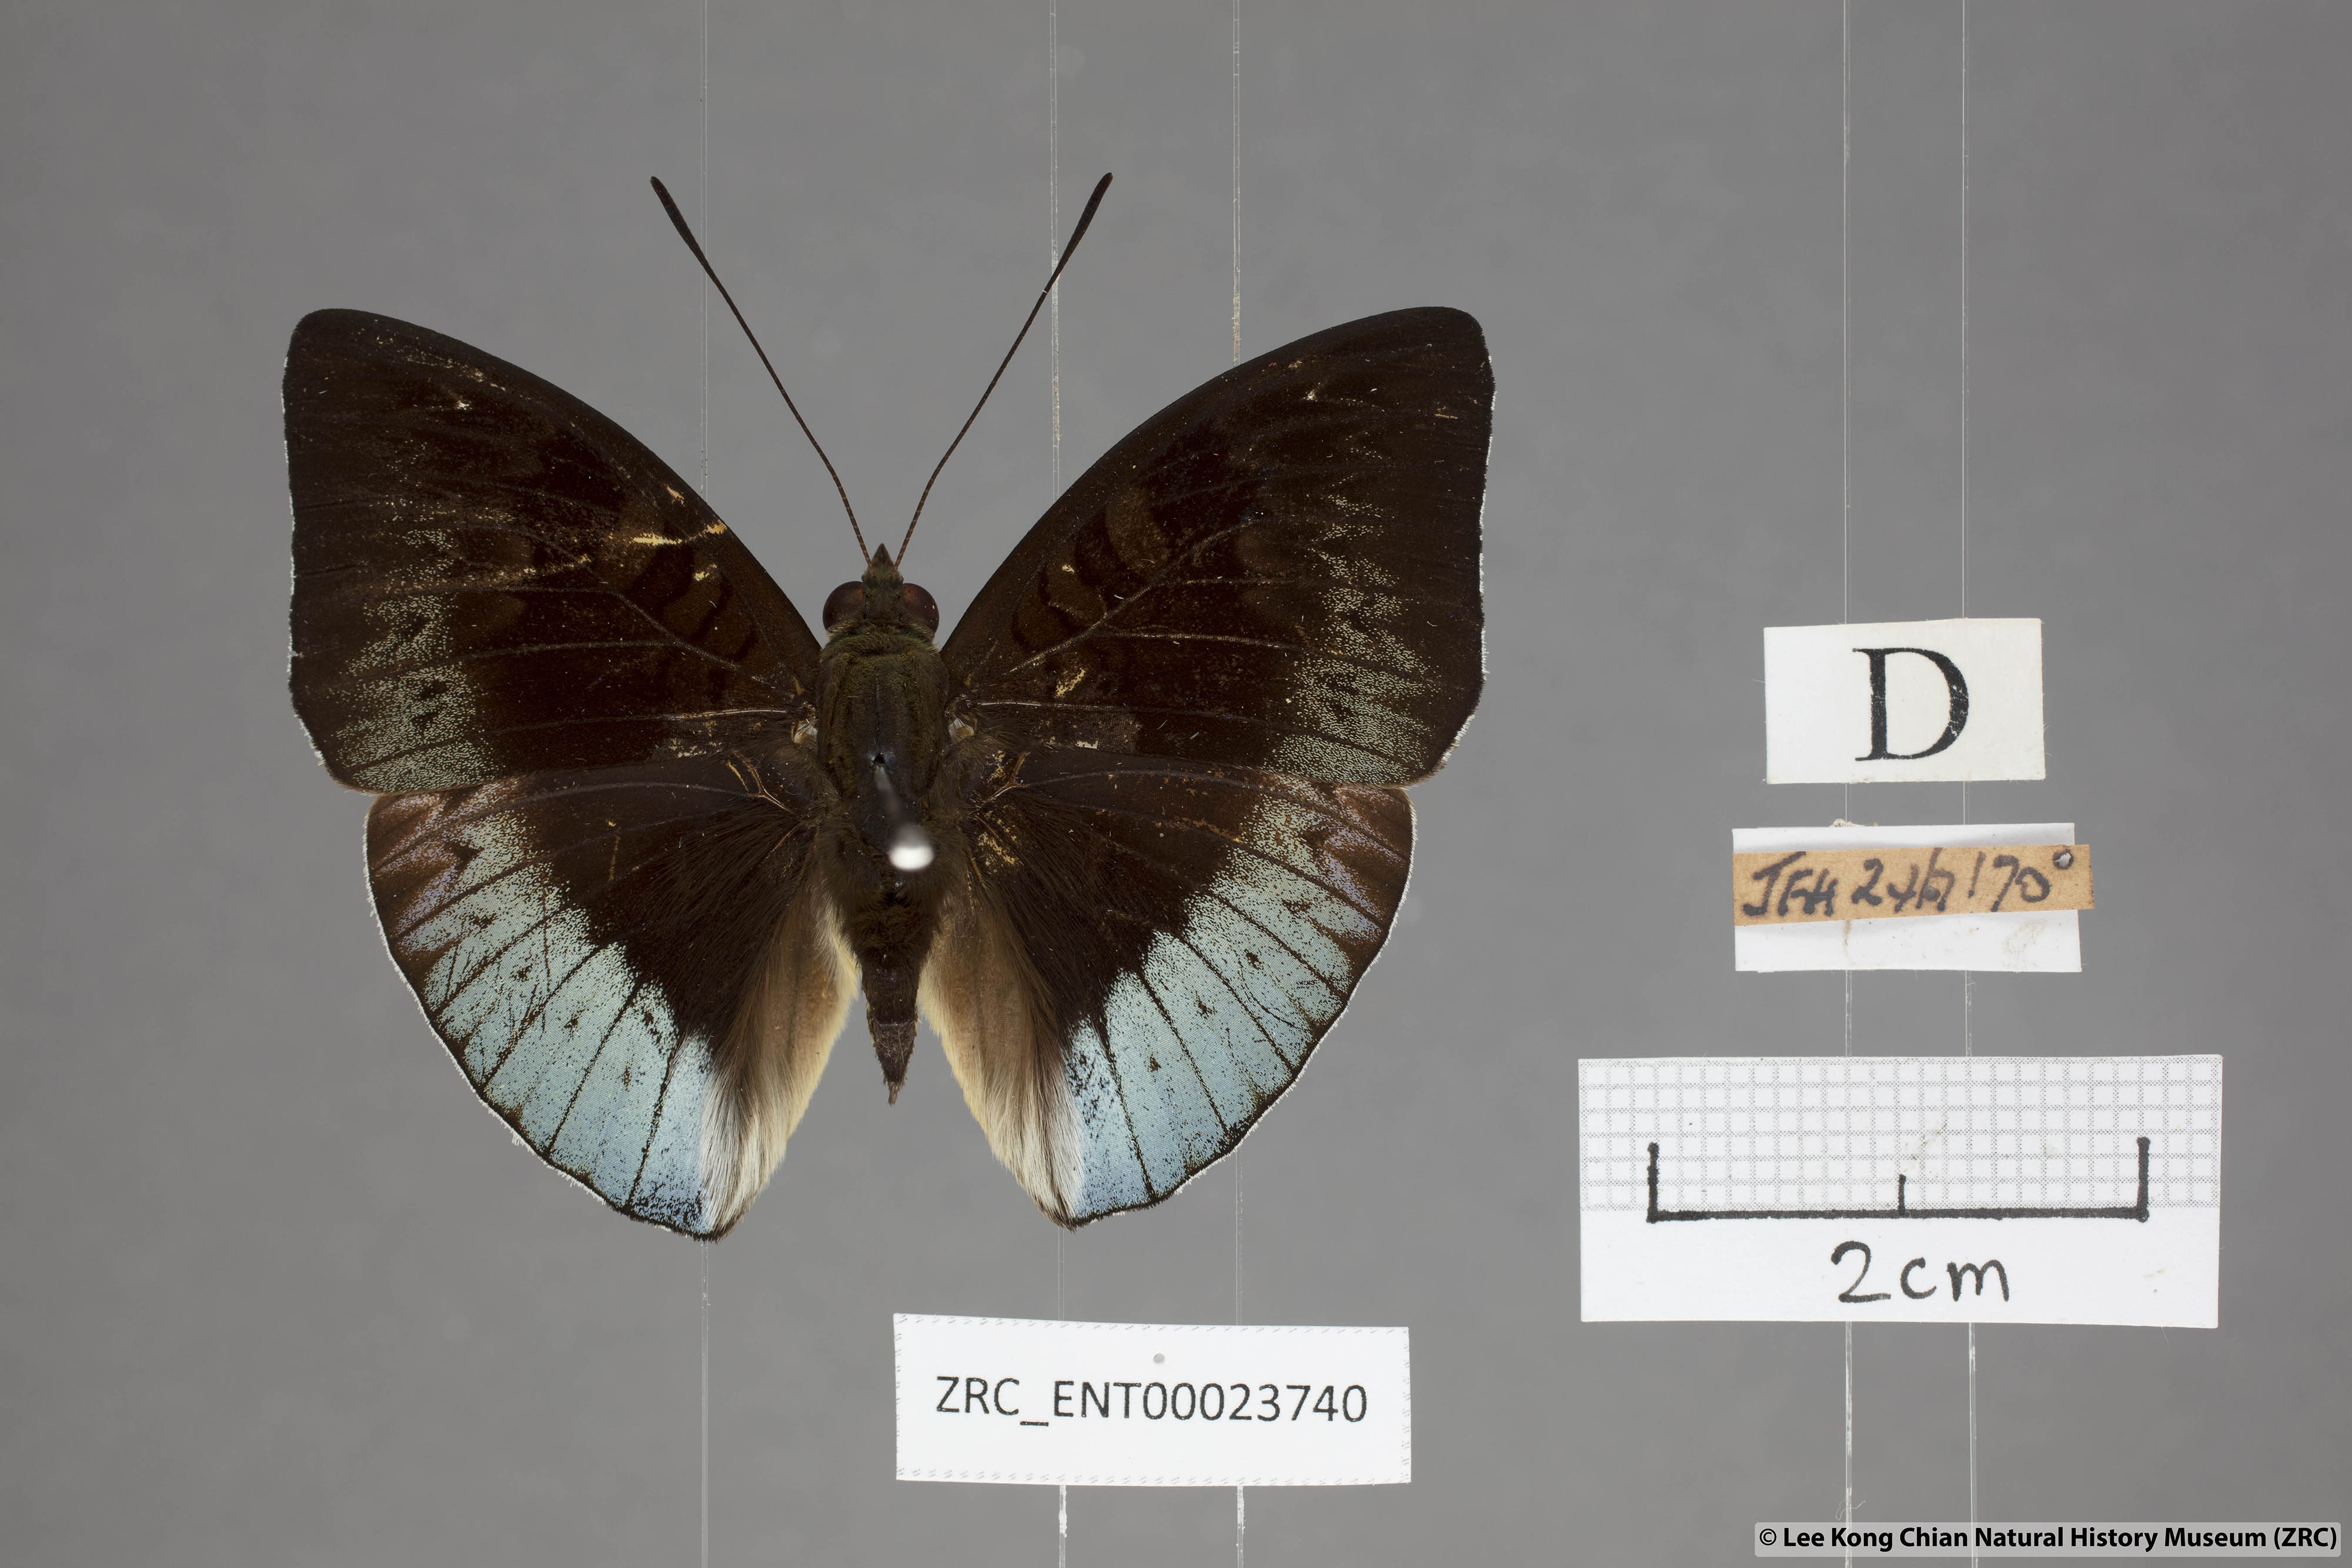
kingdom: Animalia
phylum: Arthropoda
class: Insecta
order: Lepidoptera
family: Nymphalidae
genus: Euthalia
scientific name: Euthalia monina
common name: Powdered baron
